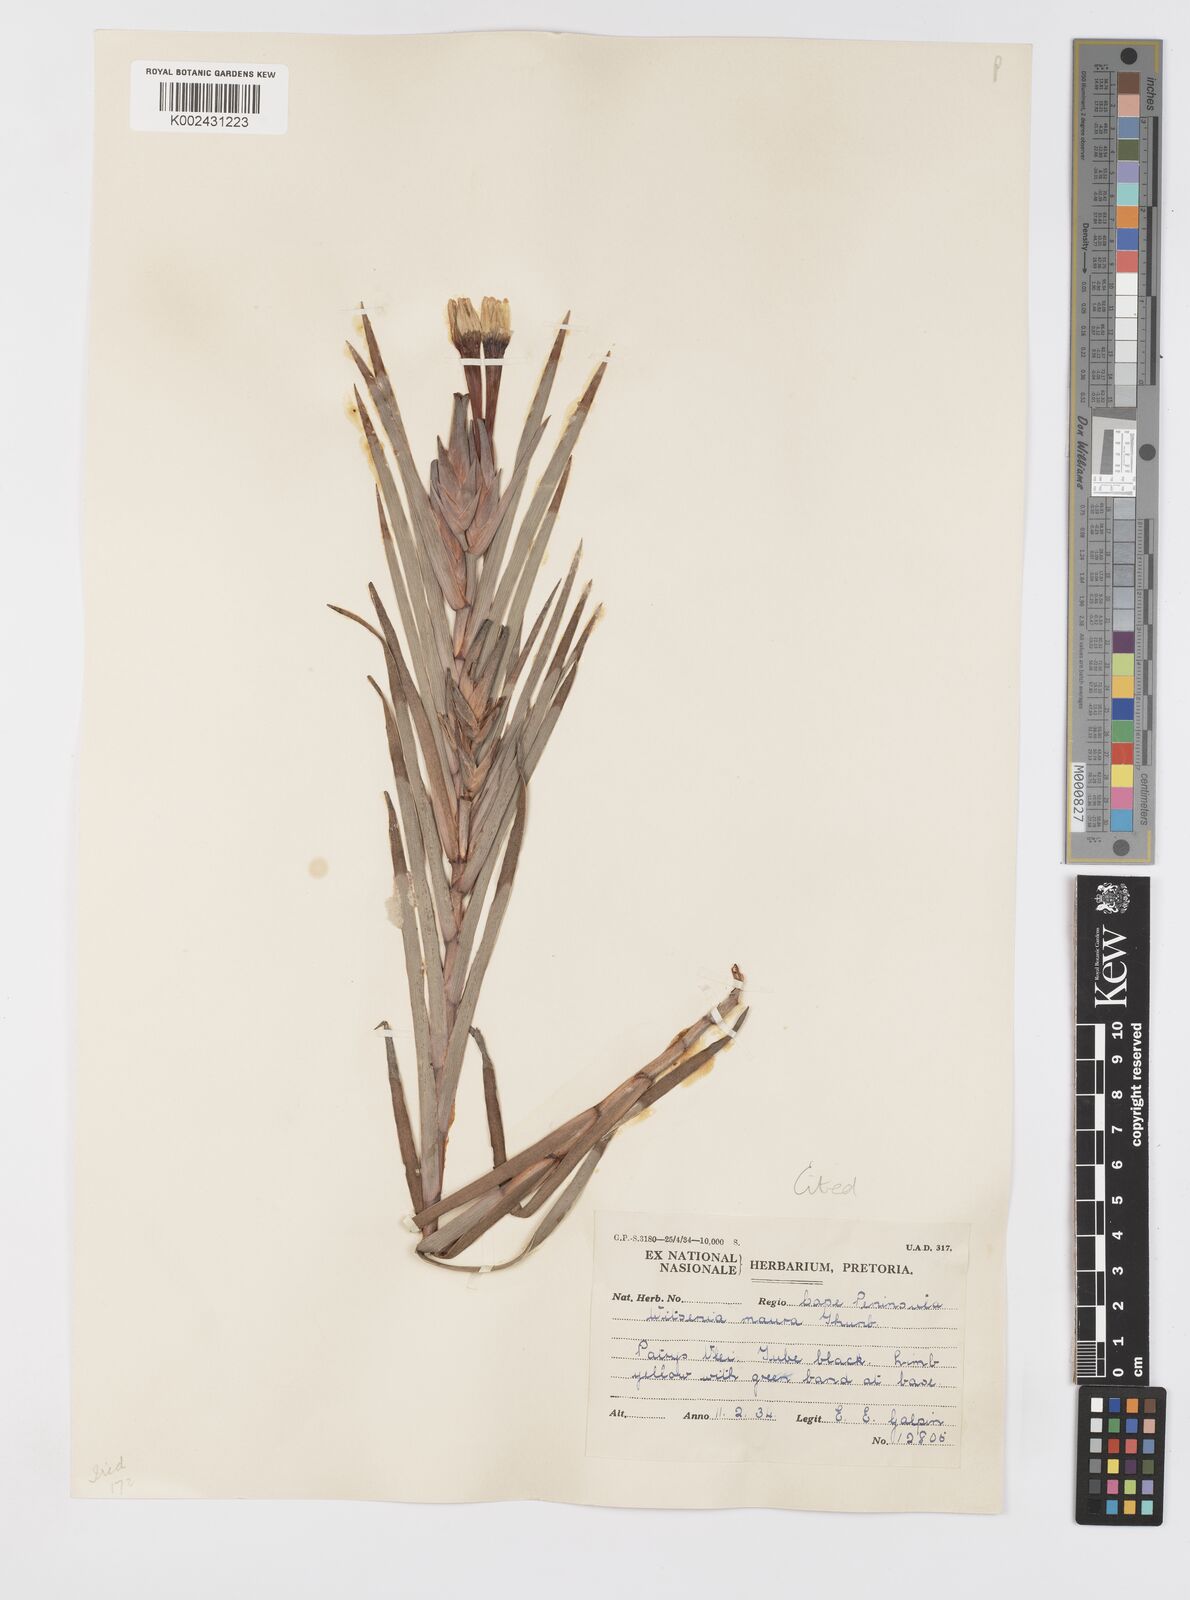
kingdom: Plantae
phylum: Tracheophyta
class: Liliopsida
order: Asparagales
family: Iridaceae
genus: Witsenia
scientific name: Witsenia maura
